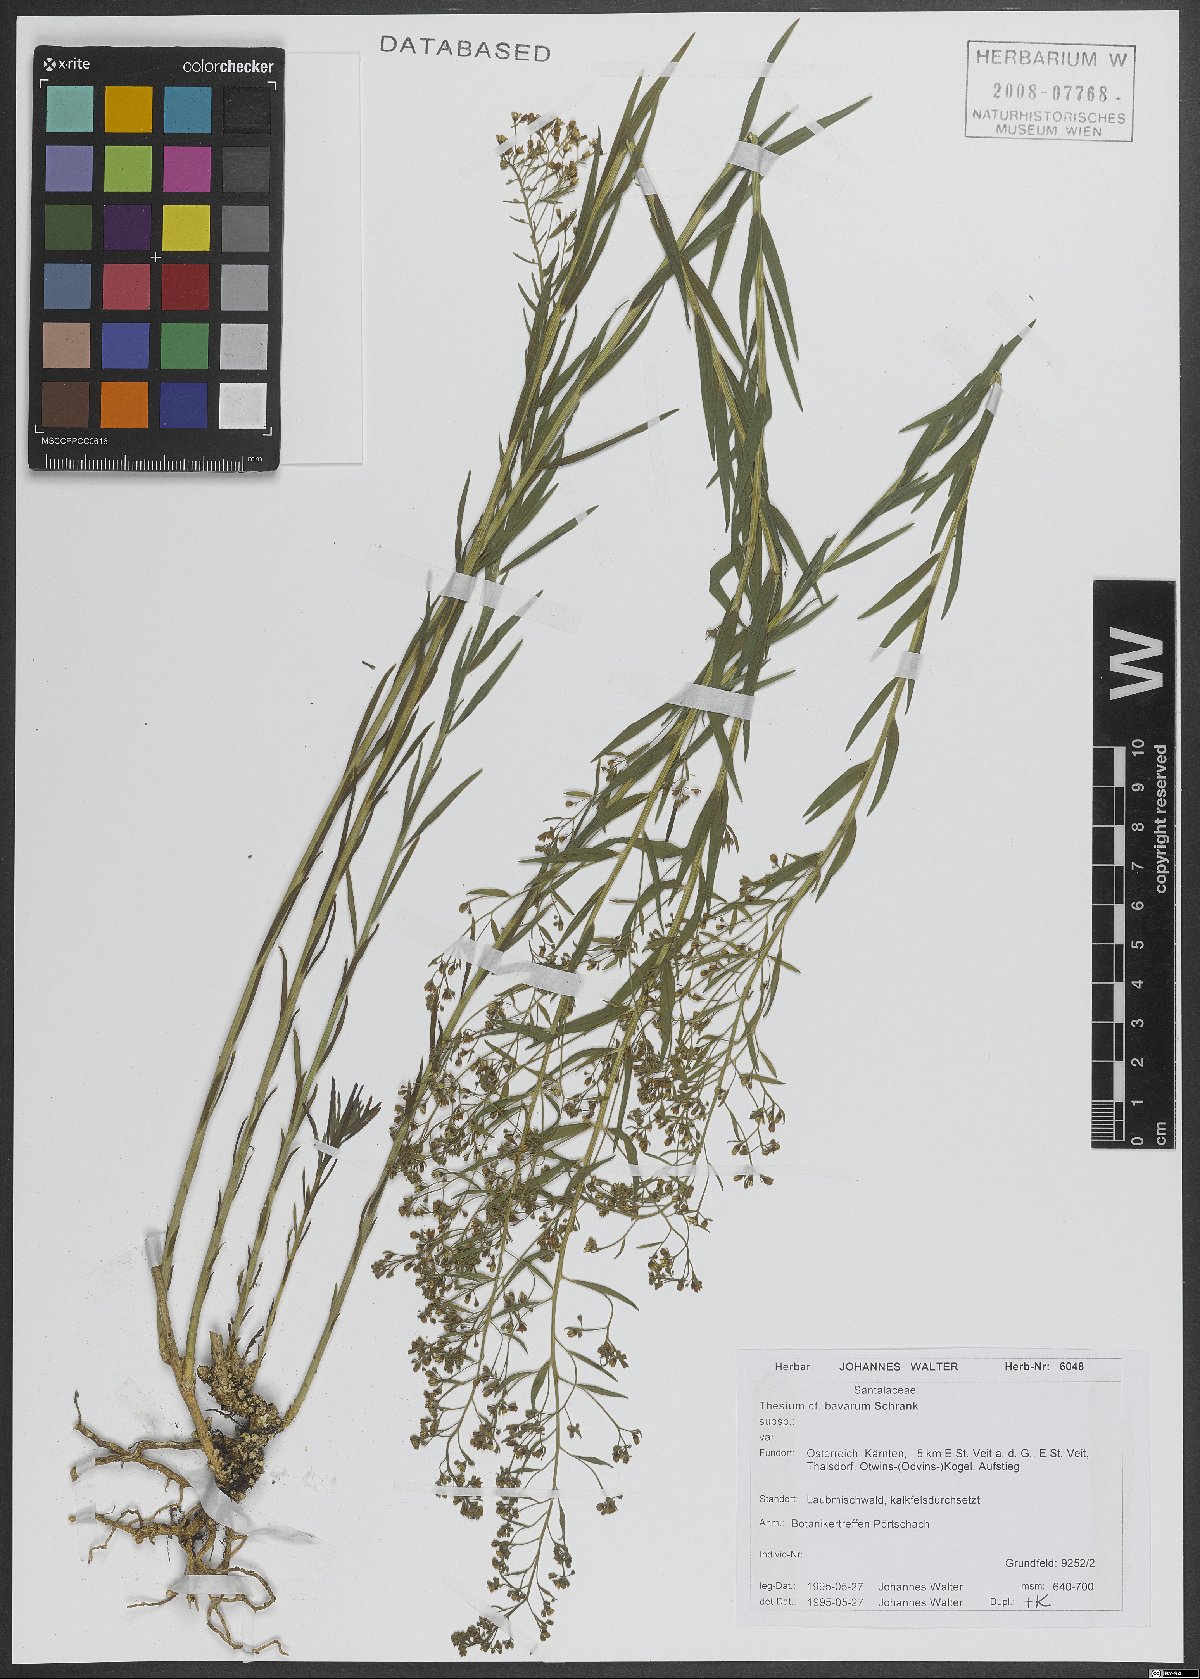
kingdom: Plantae
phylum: Tracheophyta
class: Magnoliopsida
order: Santalales
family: Thesiaceae
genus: Thesium
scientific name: Thesium bavarum
